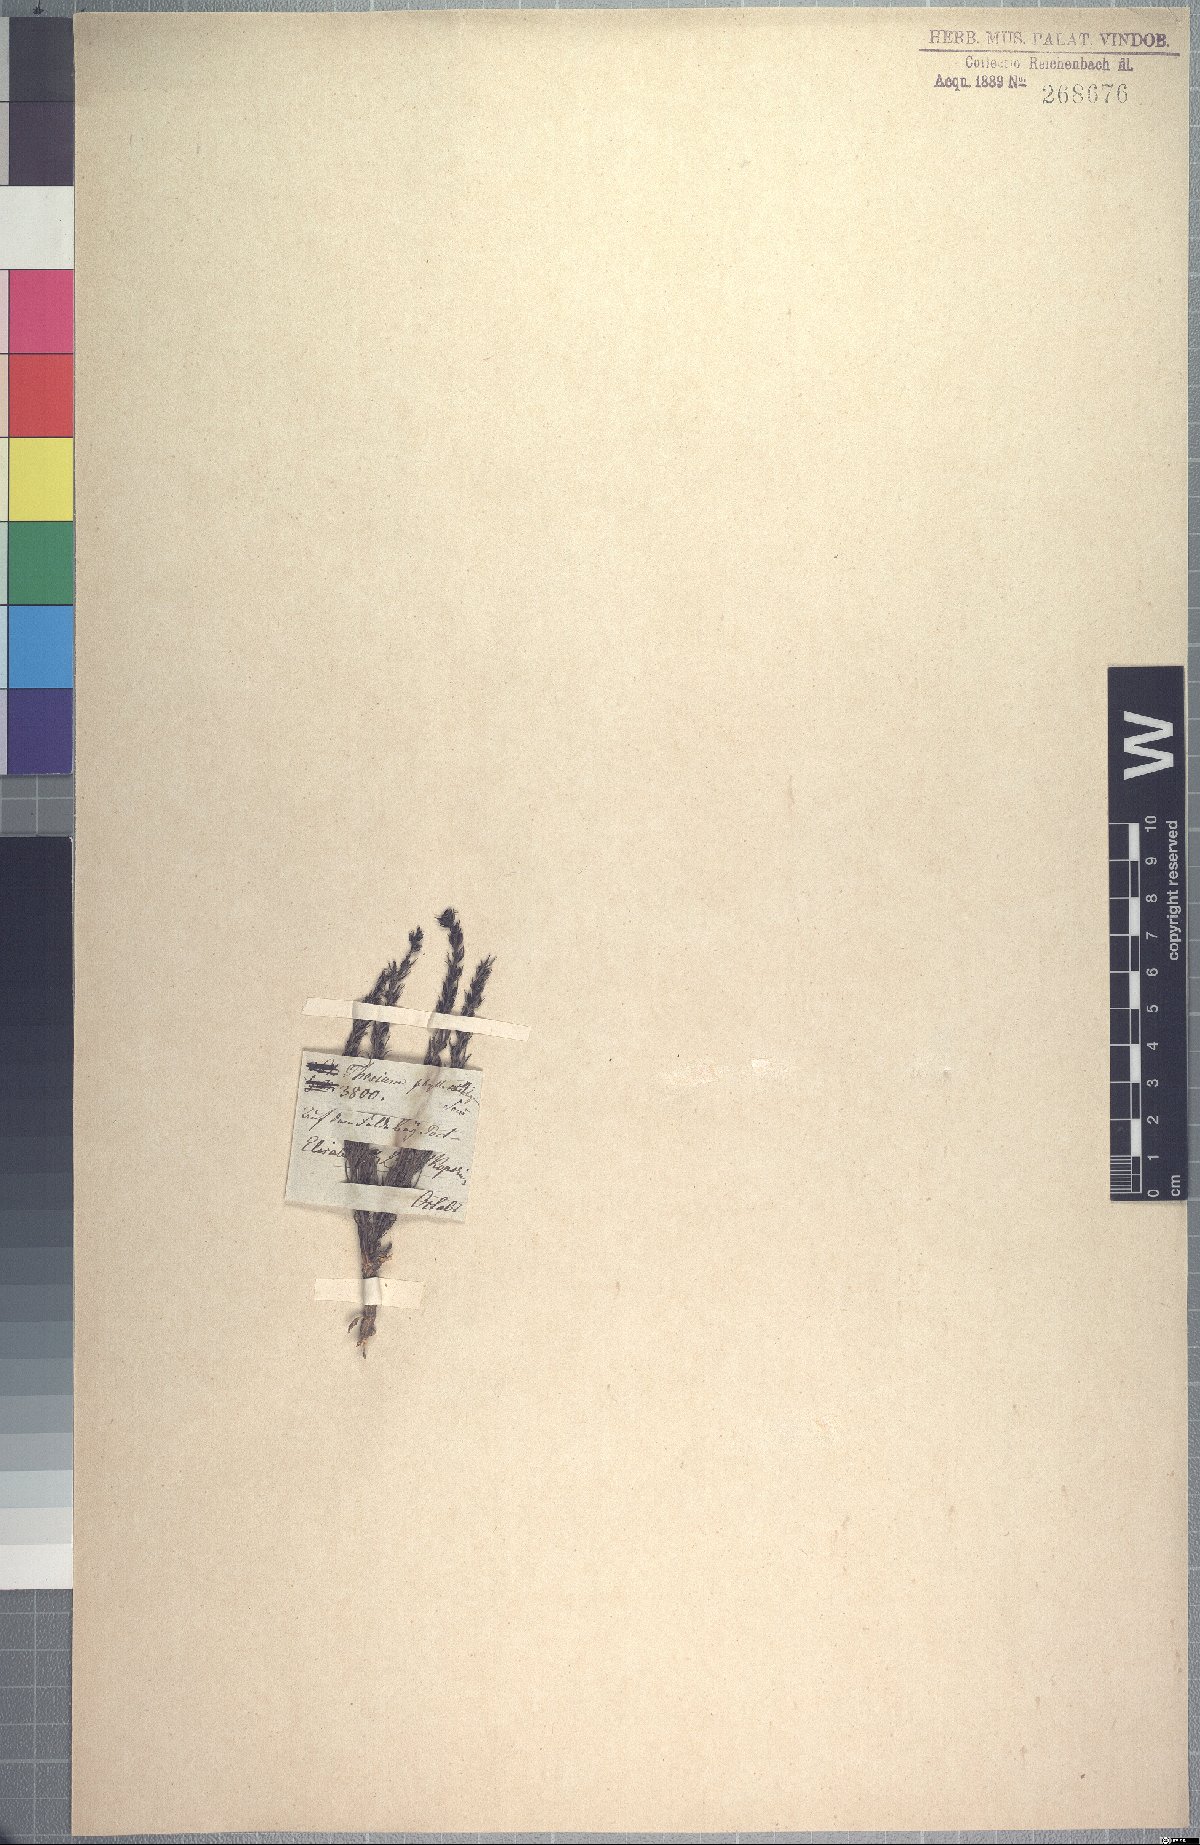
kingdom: Plantae
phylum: Tracheophyta
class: Magnoliopsida
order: Santalales
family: Thesiaceae
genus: Thesium
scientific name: Thesium phyllostachyum
